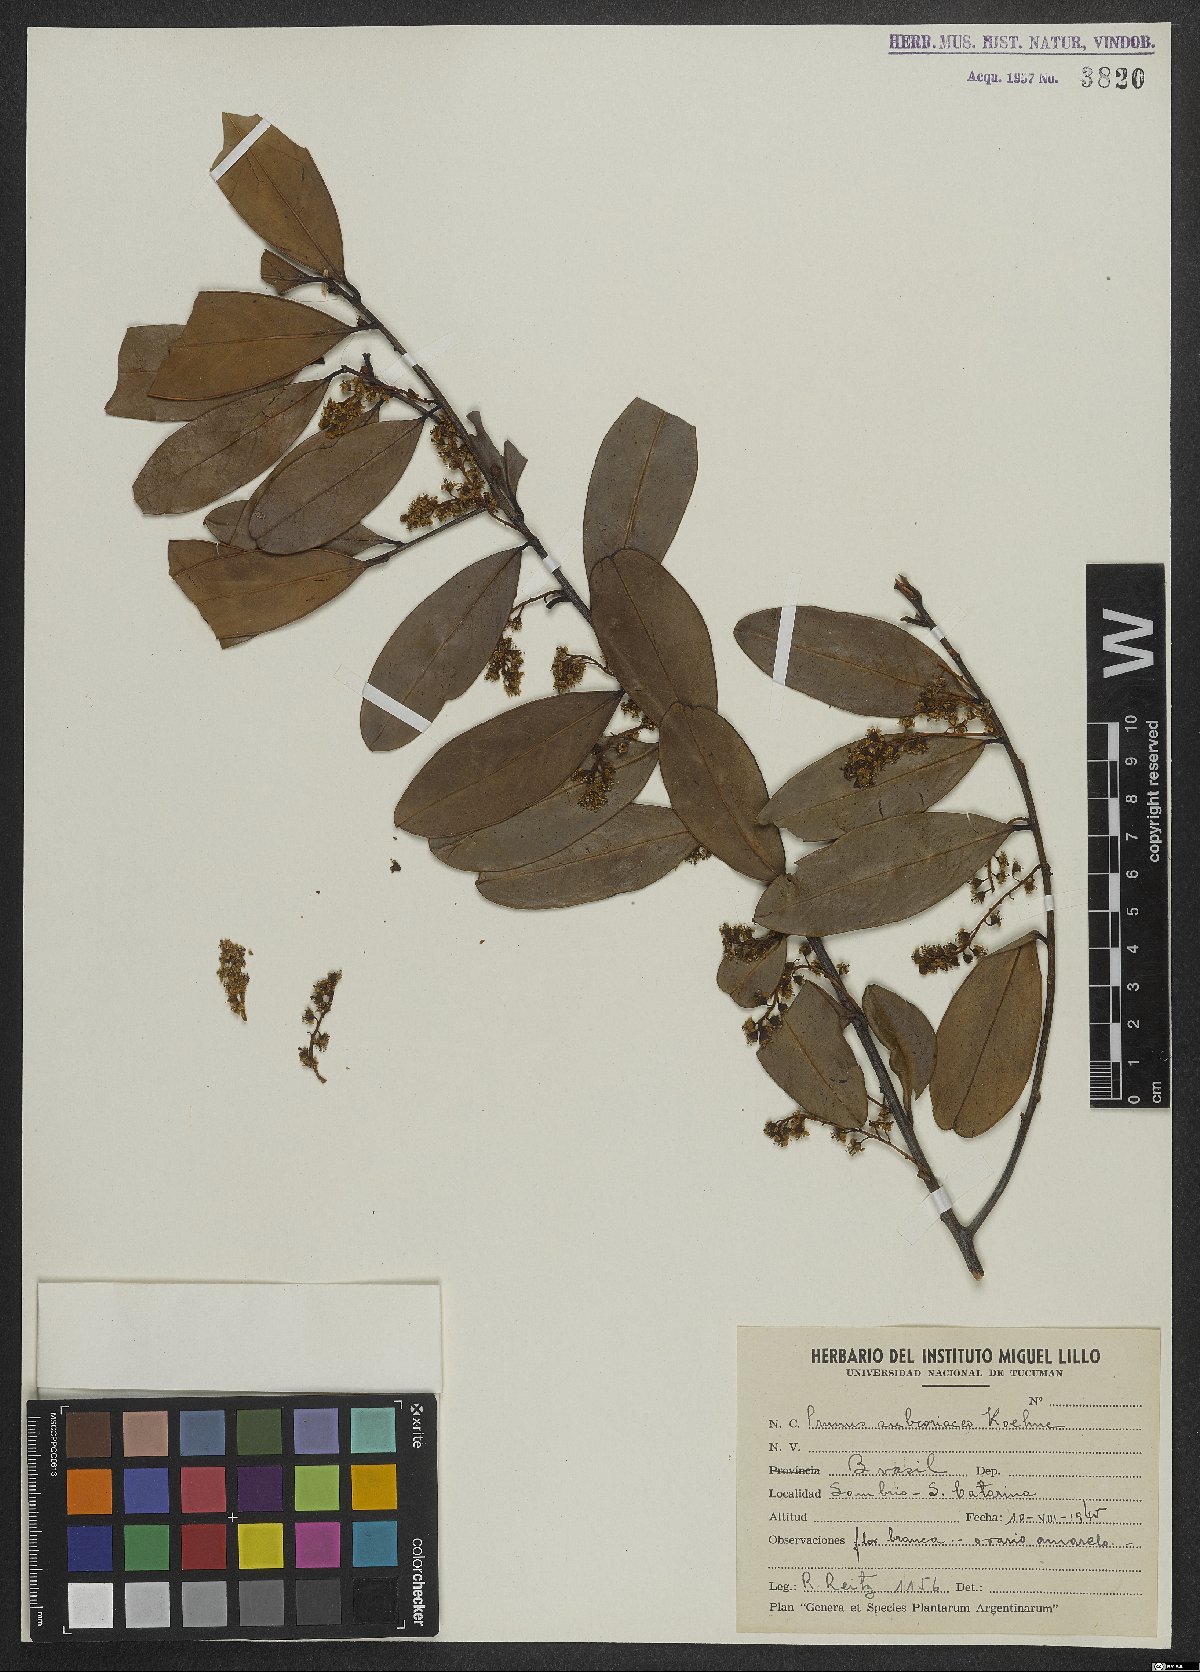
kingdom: Plantae
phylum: Tracheophyta
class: Magnoliopsida
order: Rosales
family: Rosaceae
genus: Prunus
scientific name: Prunus subcoriacea
